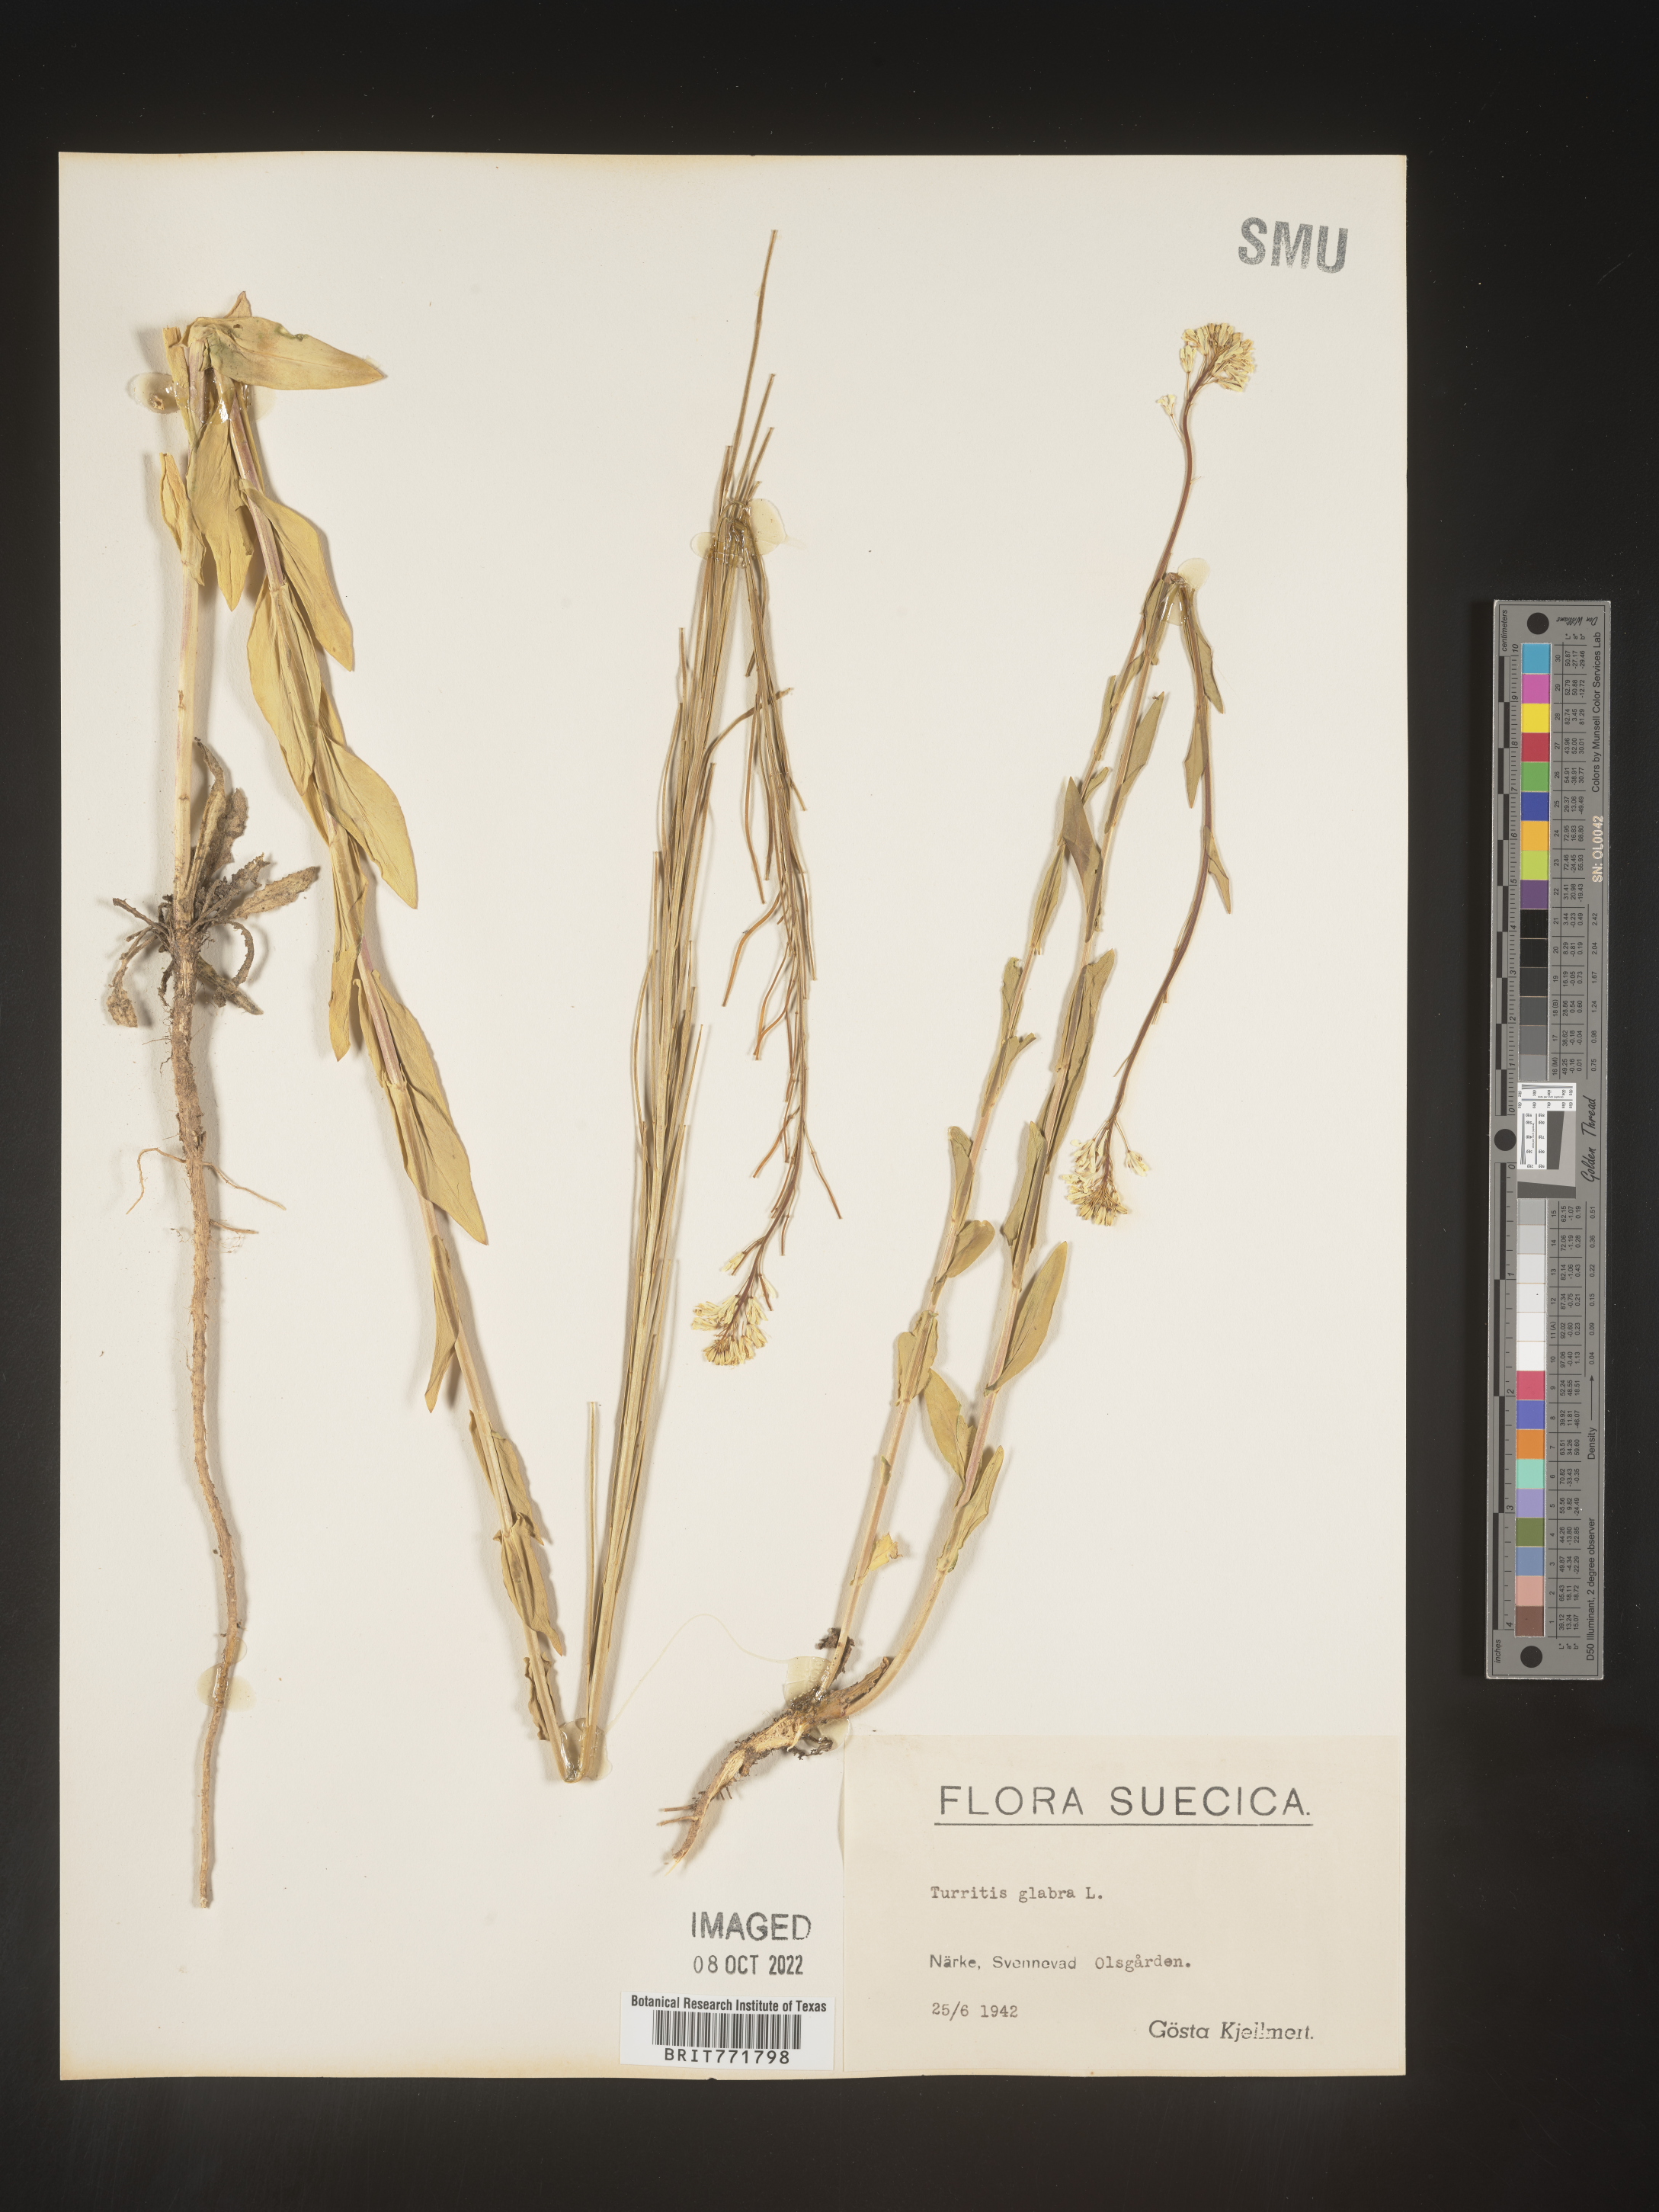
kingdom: Plantae
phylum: Tracheophyta
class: Magnoliopsida
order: Brassicales
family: Brassicaceae
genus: Arabis
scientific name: Arabis
